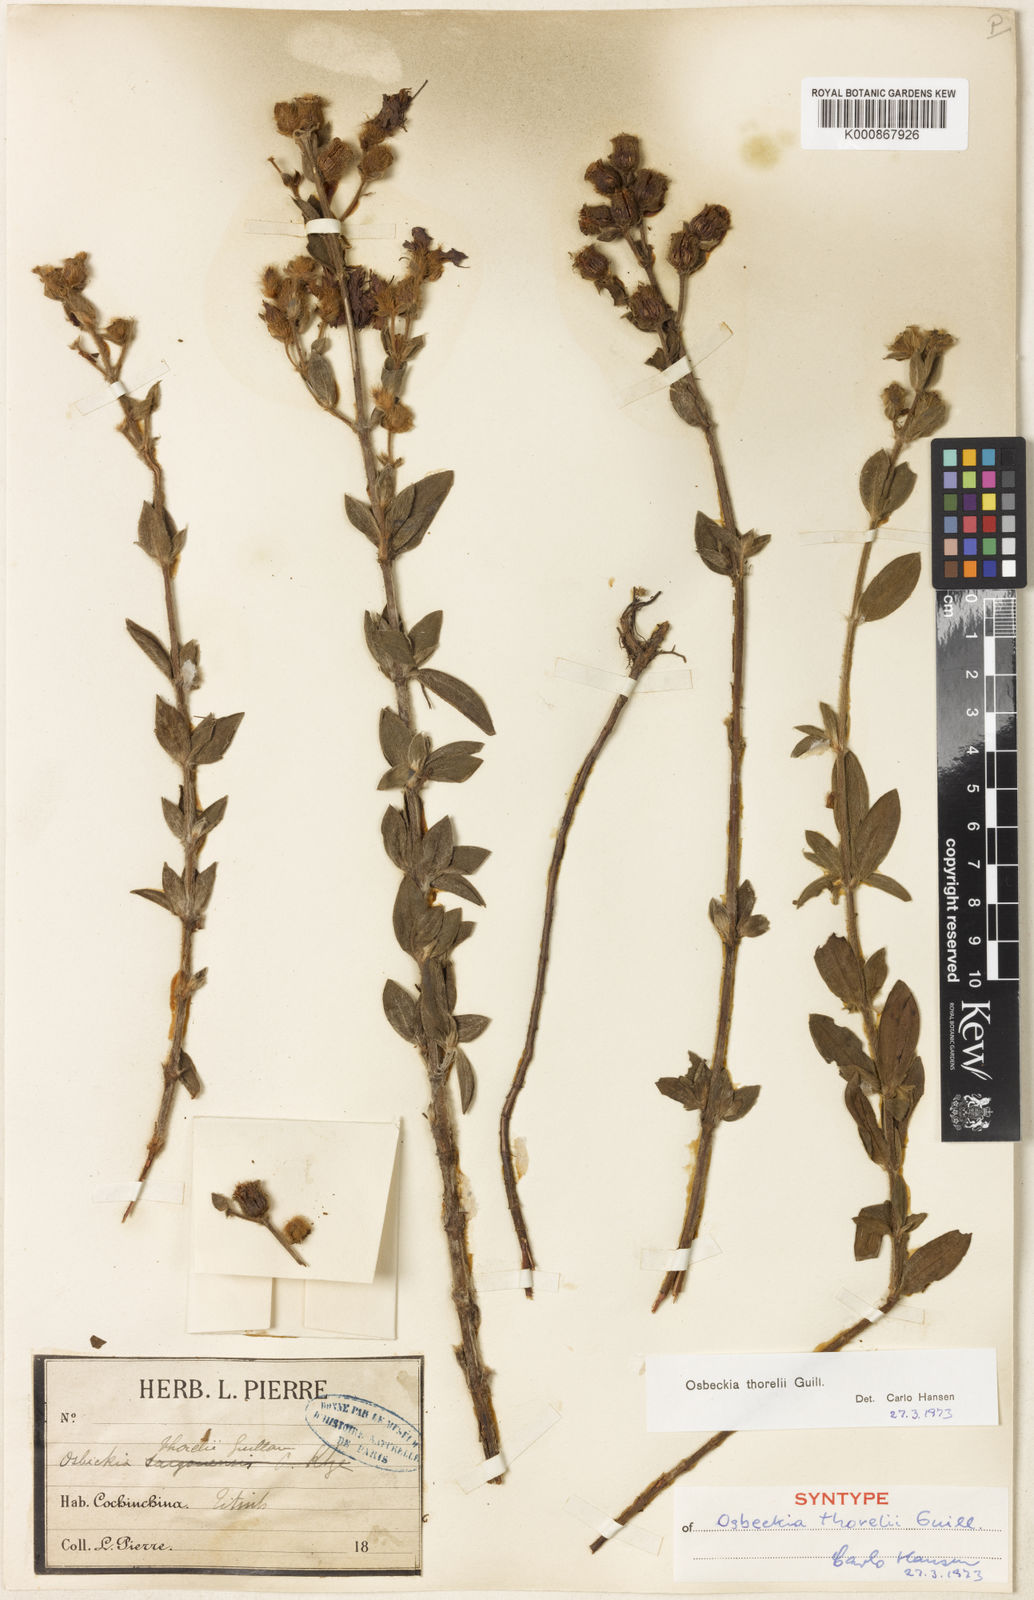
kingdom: Plantae
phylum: Tracheophyta
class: Magnoliopsida
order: Myrtales
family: Melastomataceae
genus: Osbeckia
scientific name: Osbeckia thorelii
